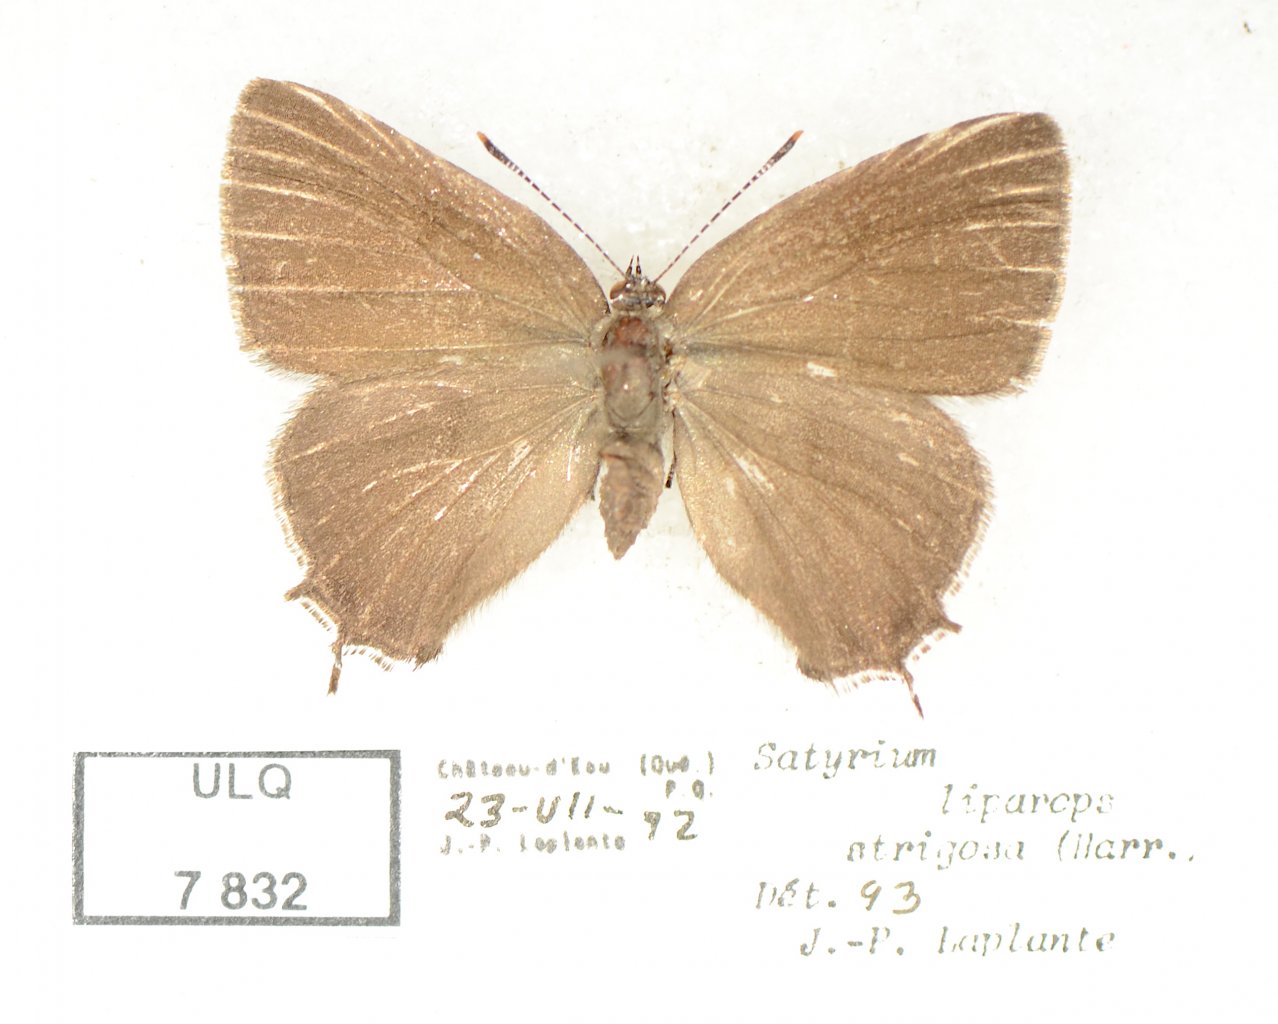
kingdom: Animalia
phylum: Arthropoda
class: Insecta
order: Lepidoptera
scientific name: Lepidoptera
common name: Butterflies
